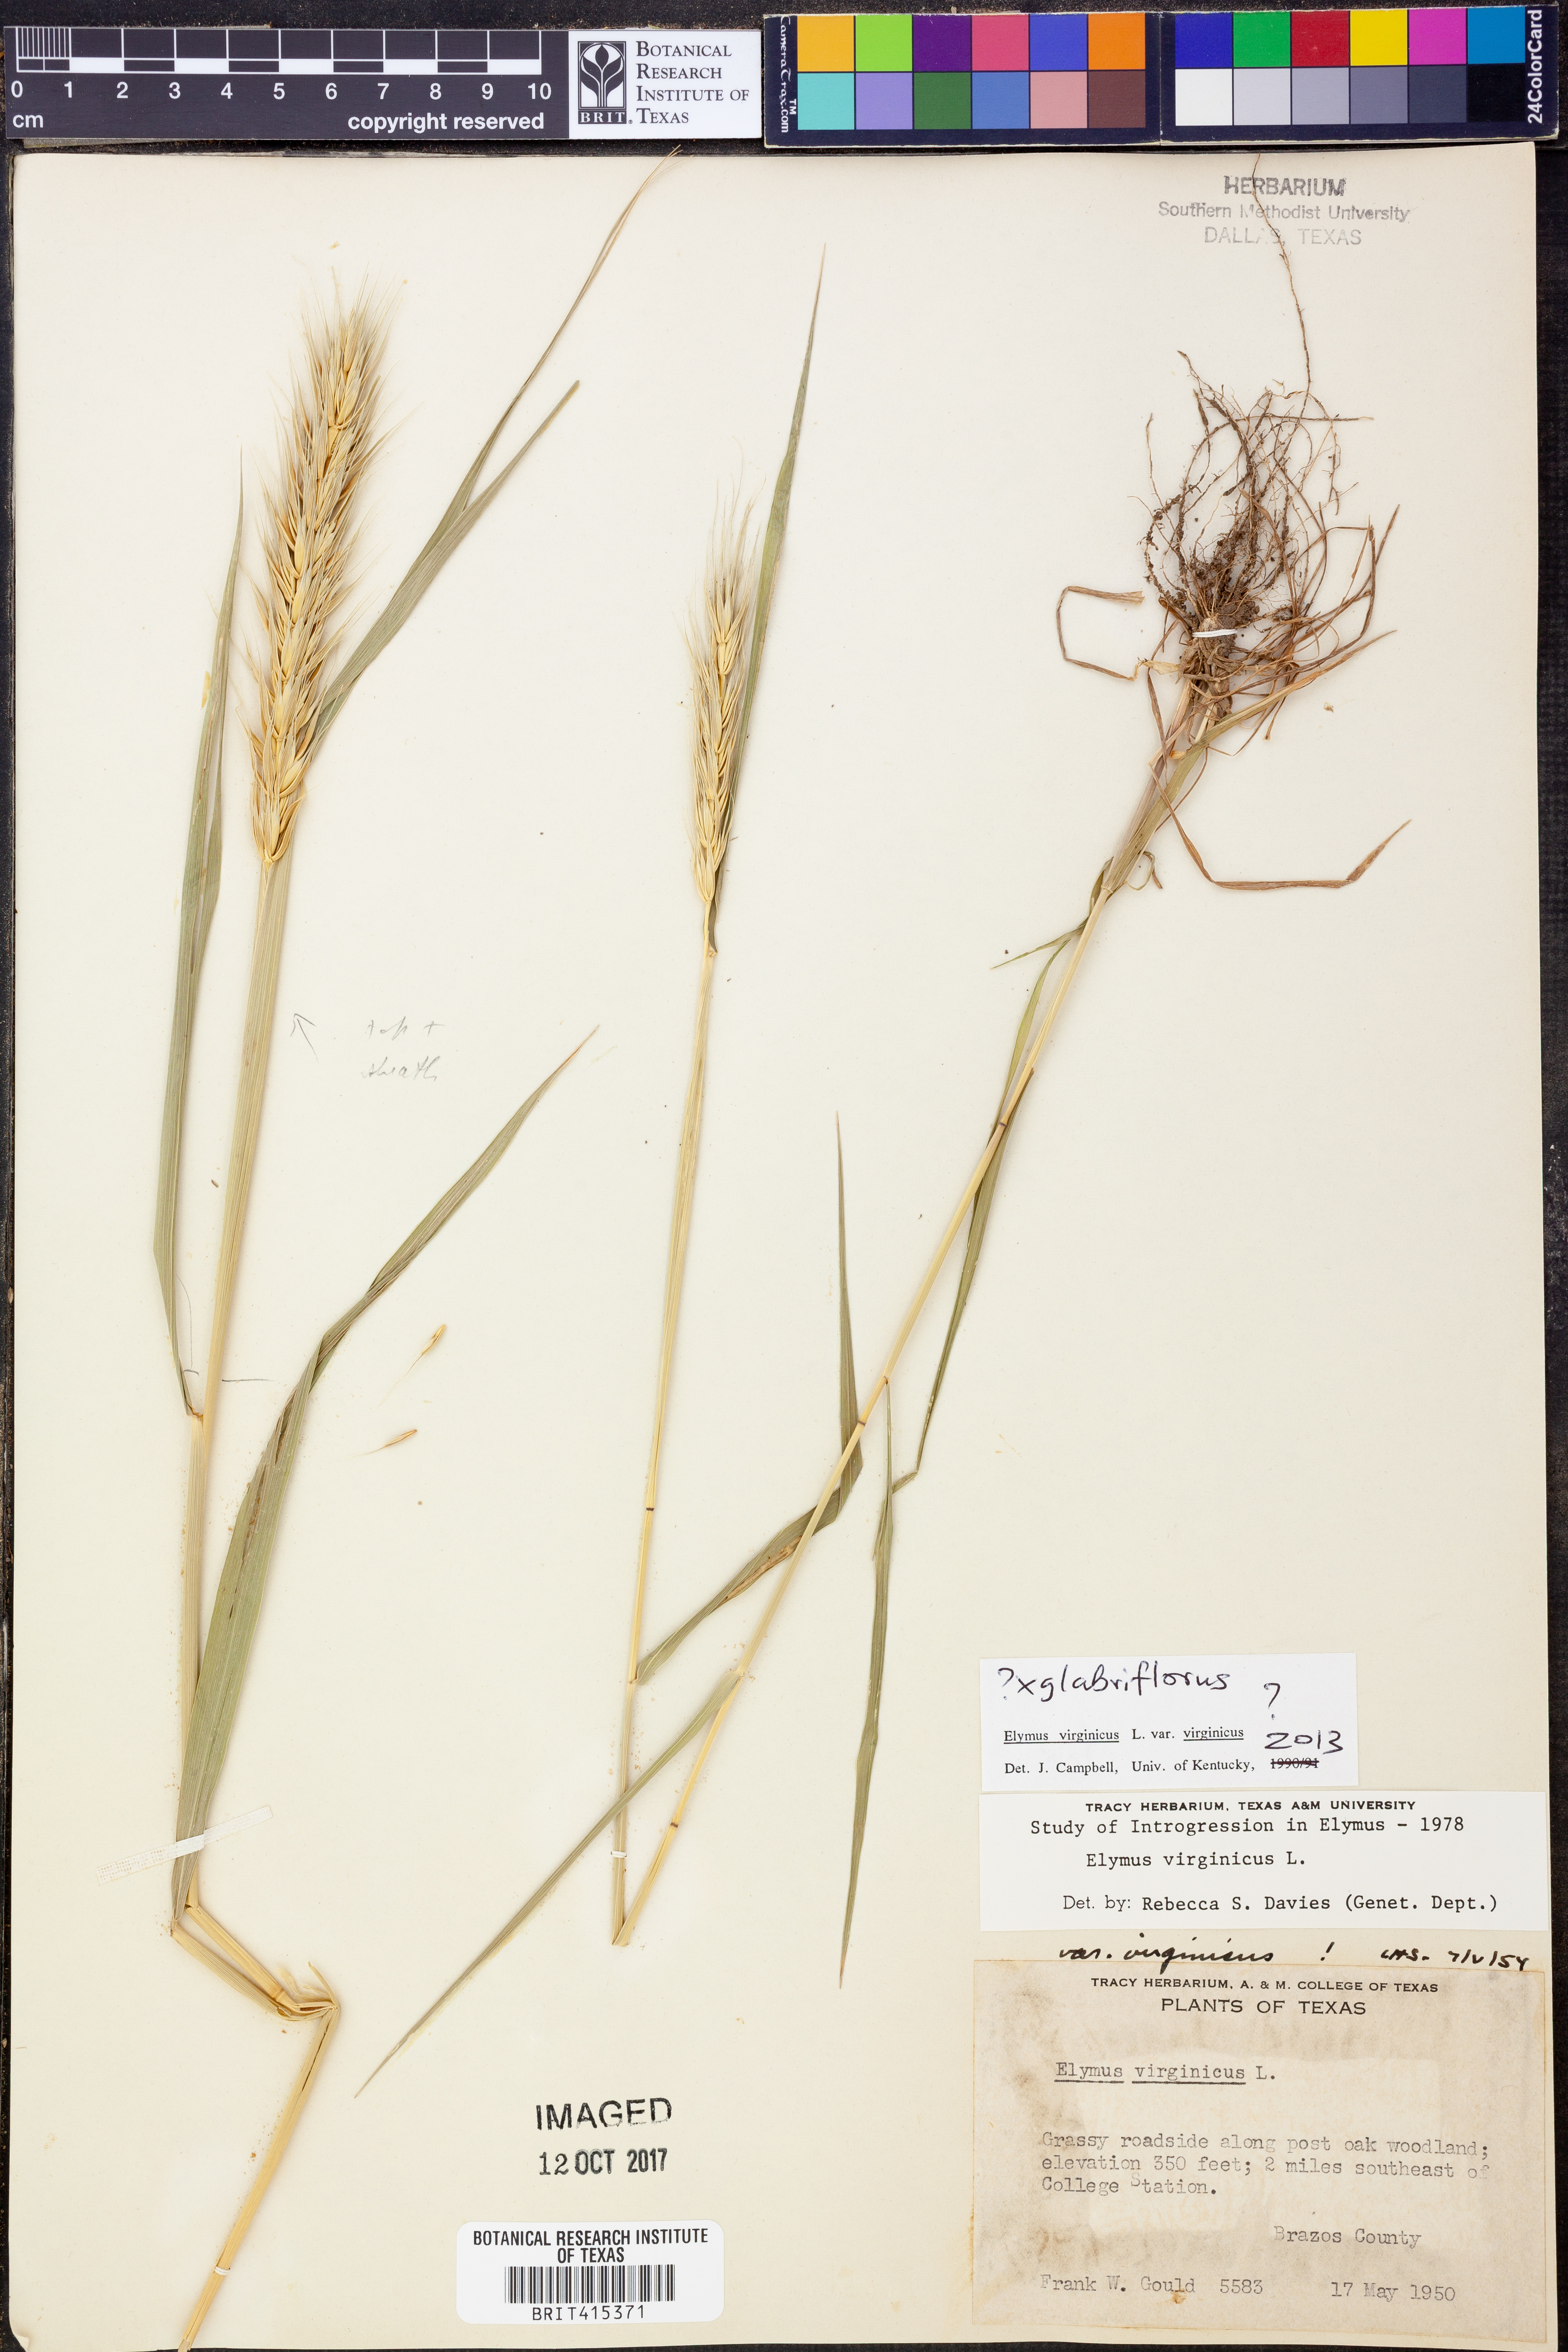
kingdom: Plantae
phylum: Tracheophyta
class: Liliopsida
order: Poales
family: Poaceae
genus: Elymus
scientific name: Elymus virginicus
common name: Common eastern wildrye
